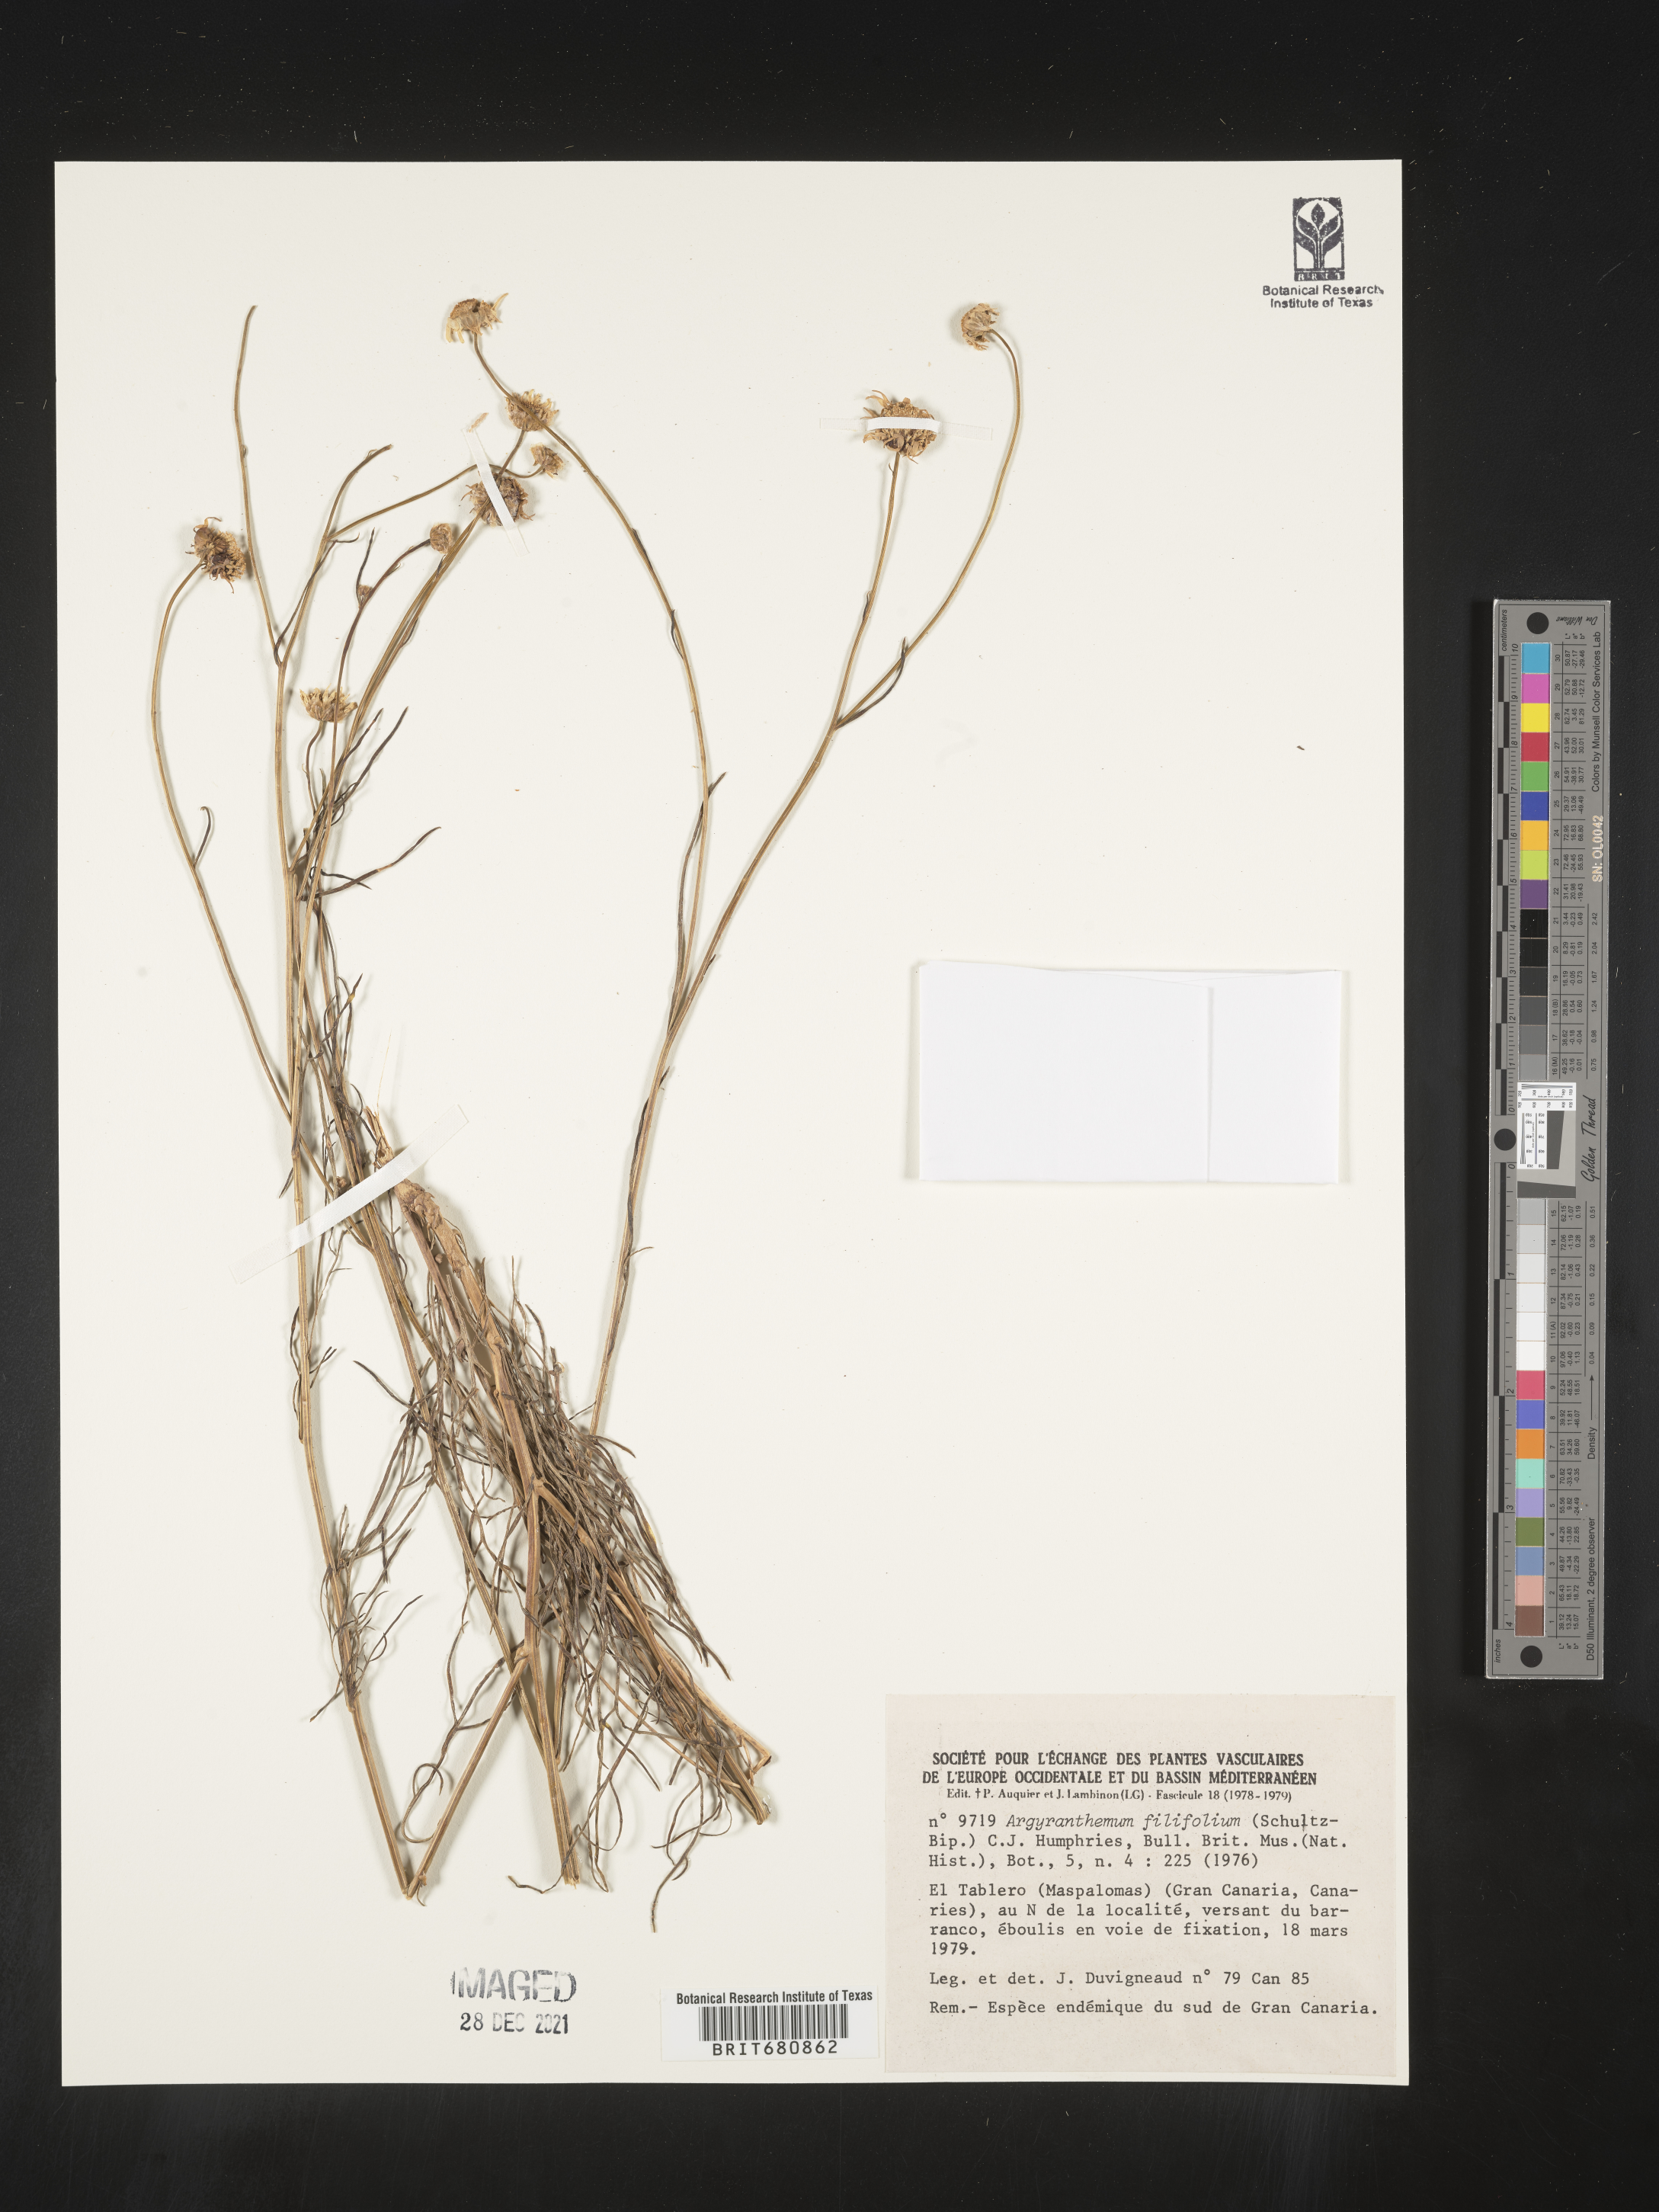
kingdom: Plantae
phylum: Tracheophyta
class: Magnoliopsida
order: Asterales
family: Asteraceae
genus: Argyranthemum
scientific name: Argyranthemum
